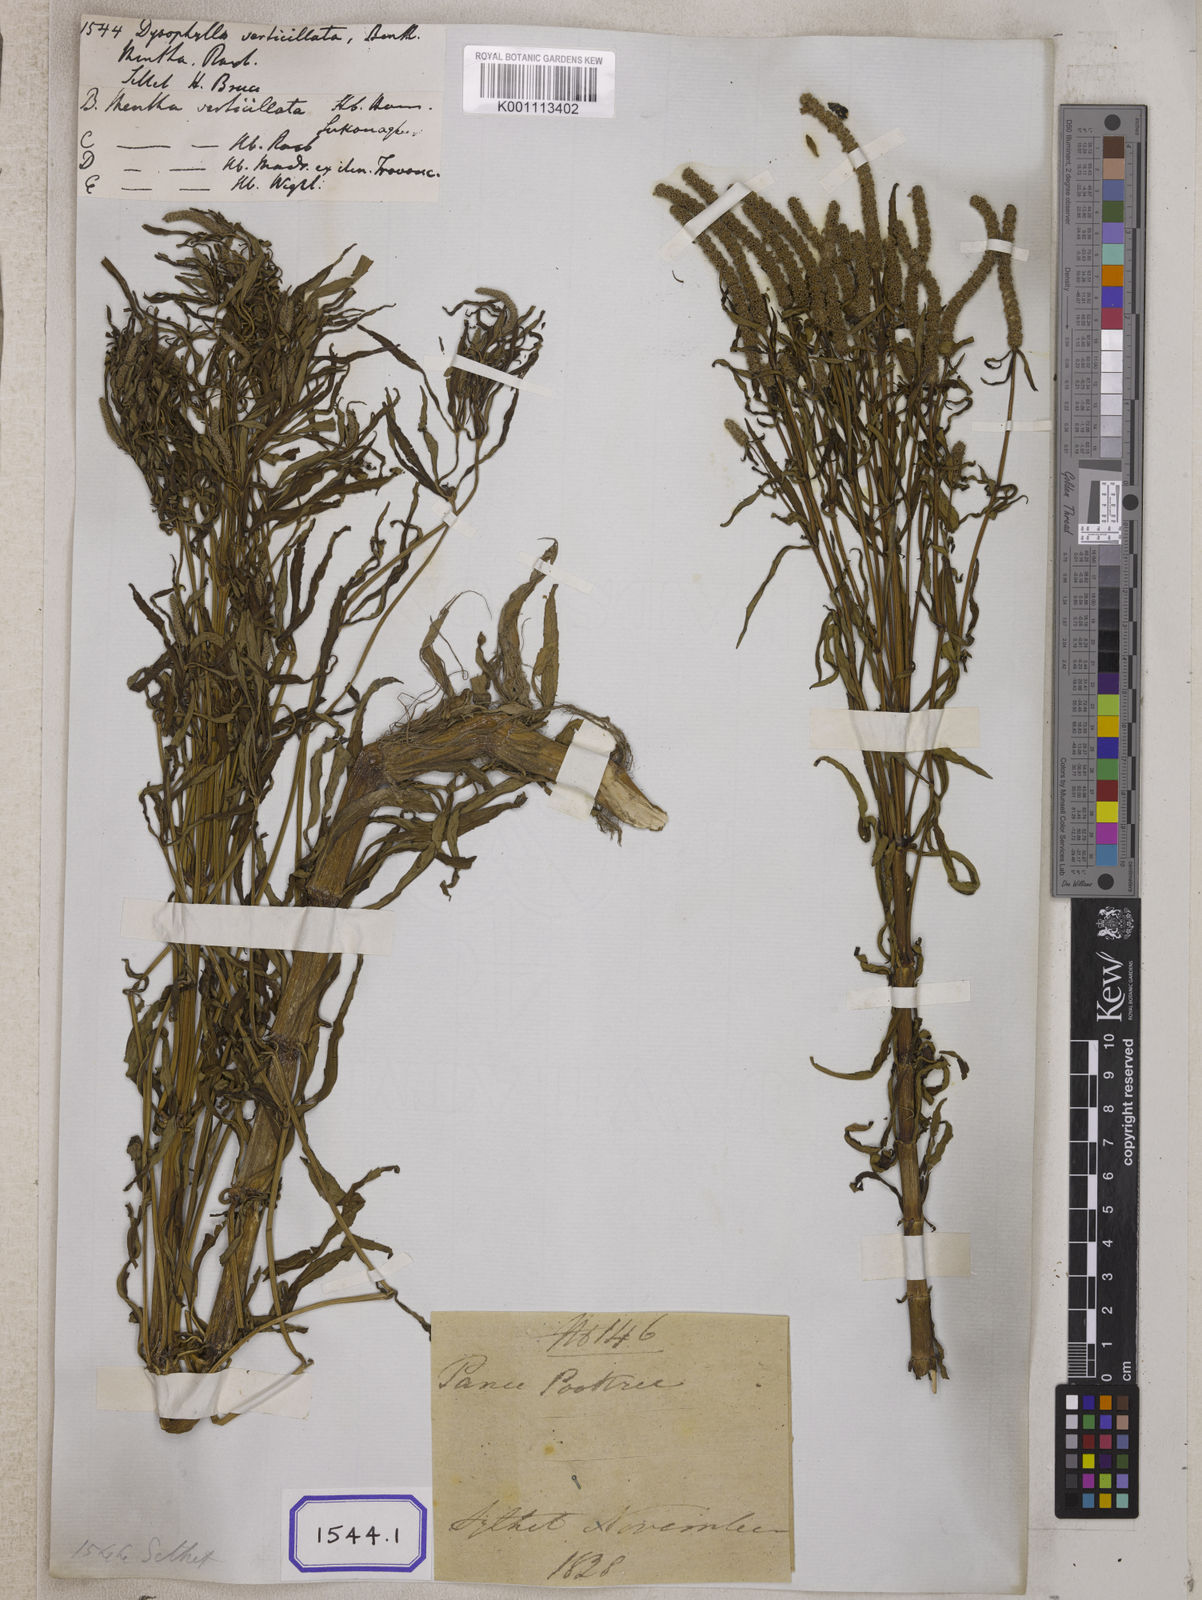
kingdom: Plantae
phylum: Tracheophyta
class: Magnoliopsida
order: Lamiales
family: Lamiaceae
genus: Pogostemon
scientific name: Pogostemon
